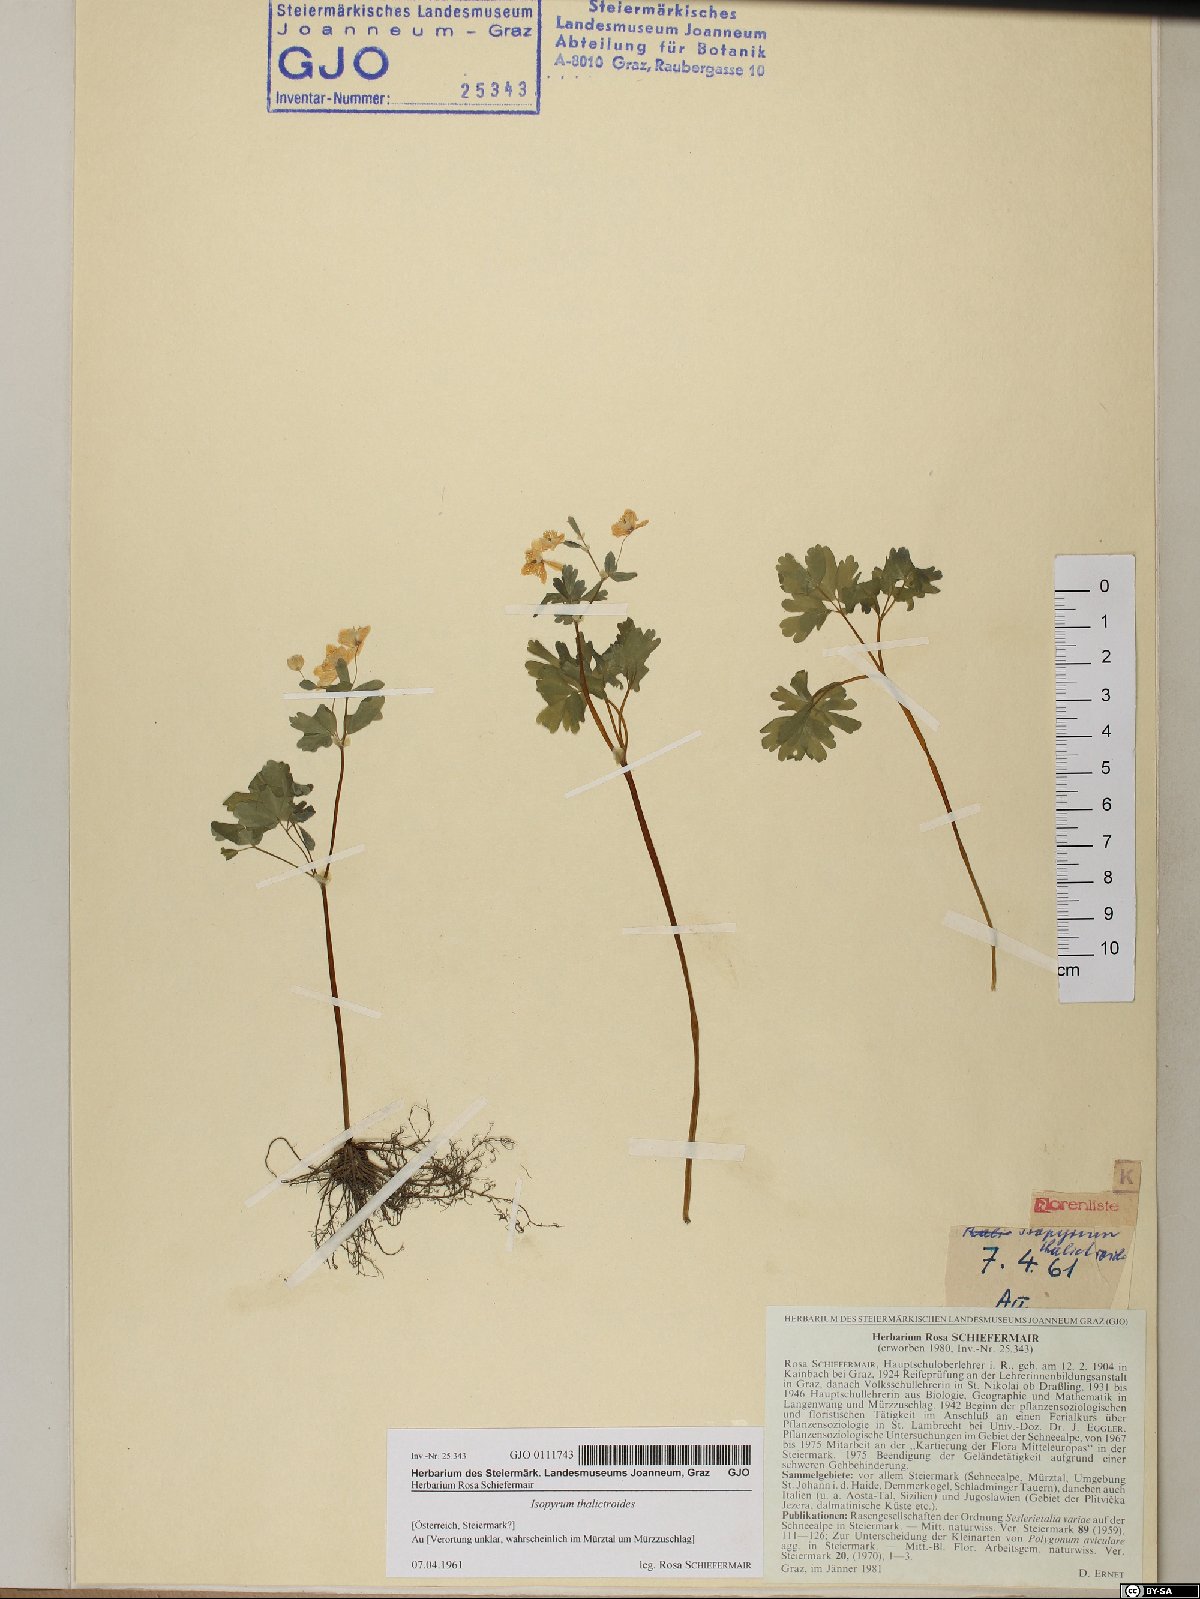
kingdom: Plantae
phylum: Tracheophyta
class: Magnoliopsida
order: Ranunculales
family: Ranunculaceae
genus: Isopyrum
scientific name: Isopyrum thalictroides
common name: Isopyrum
